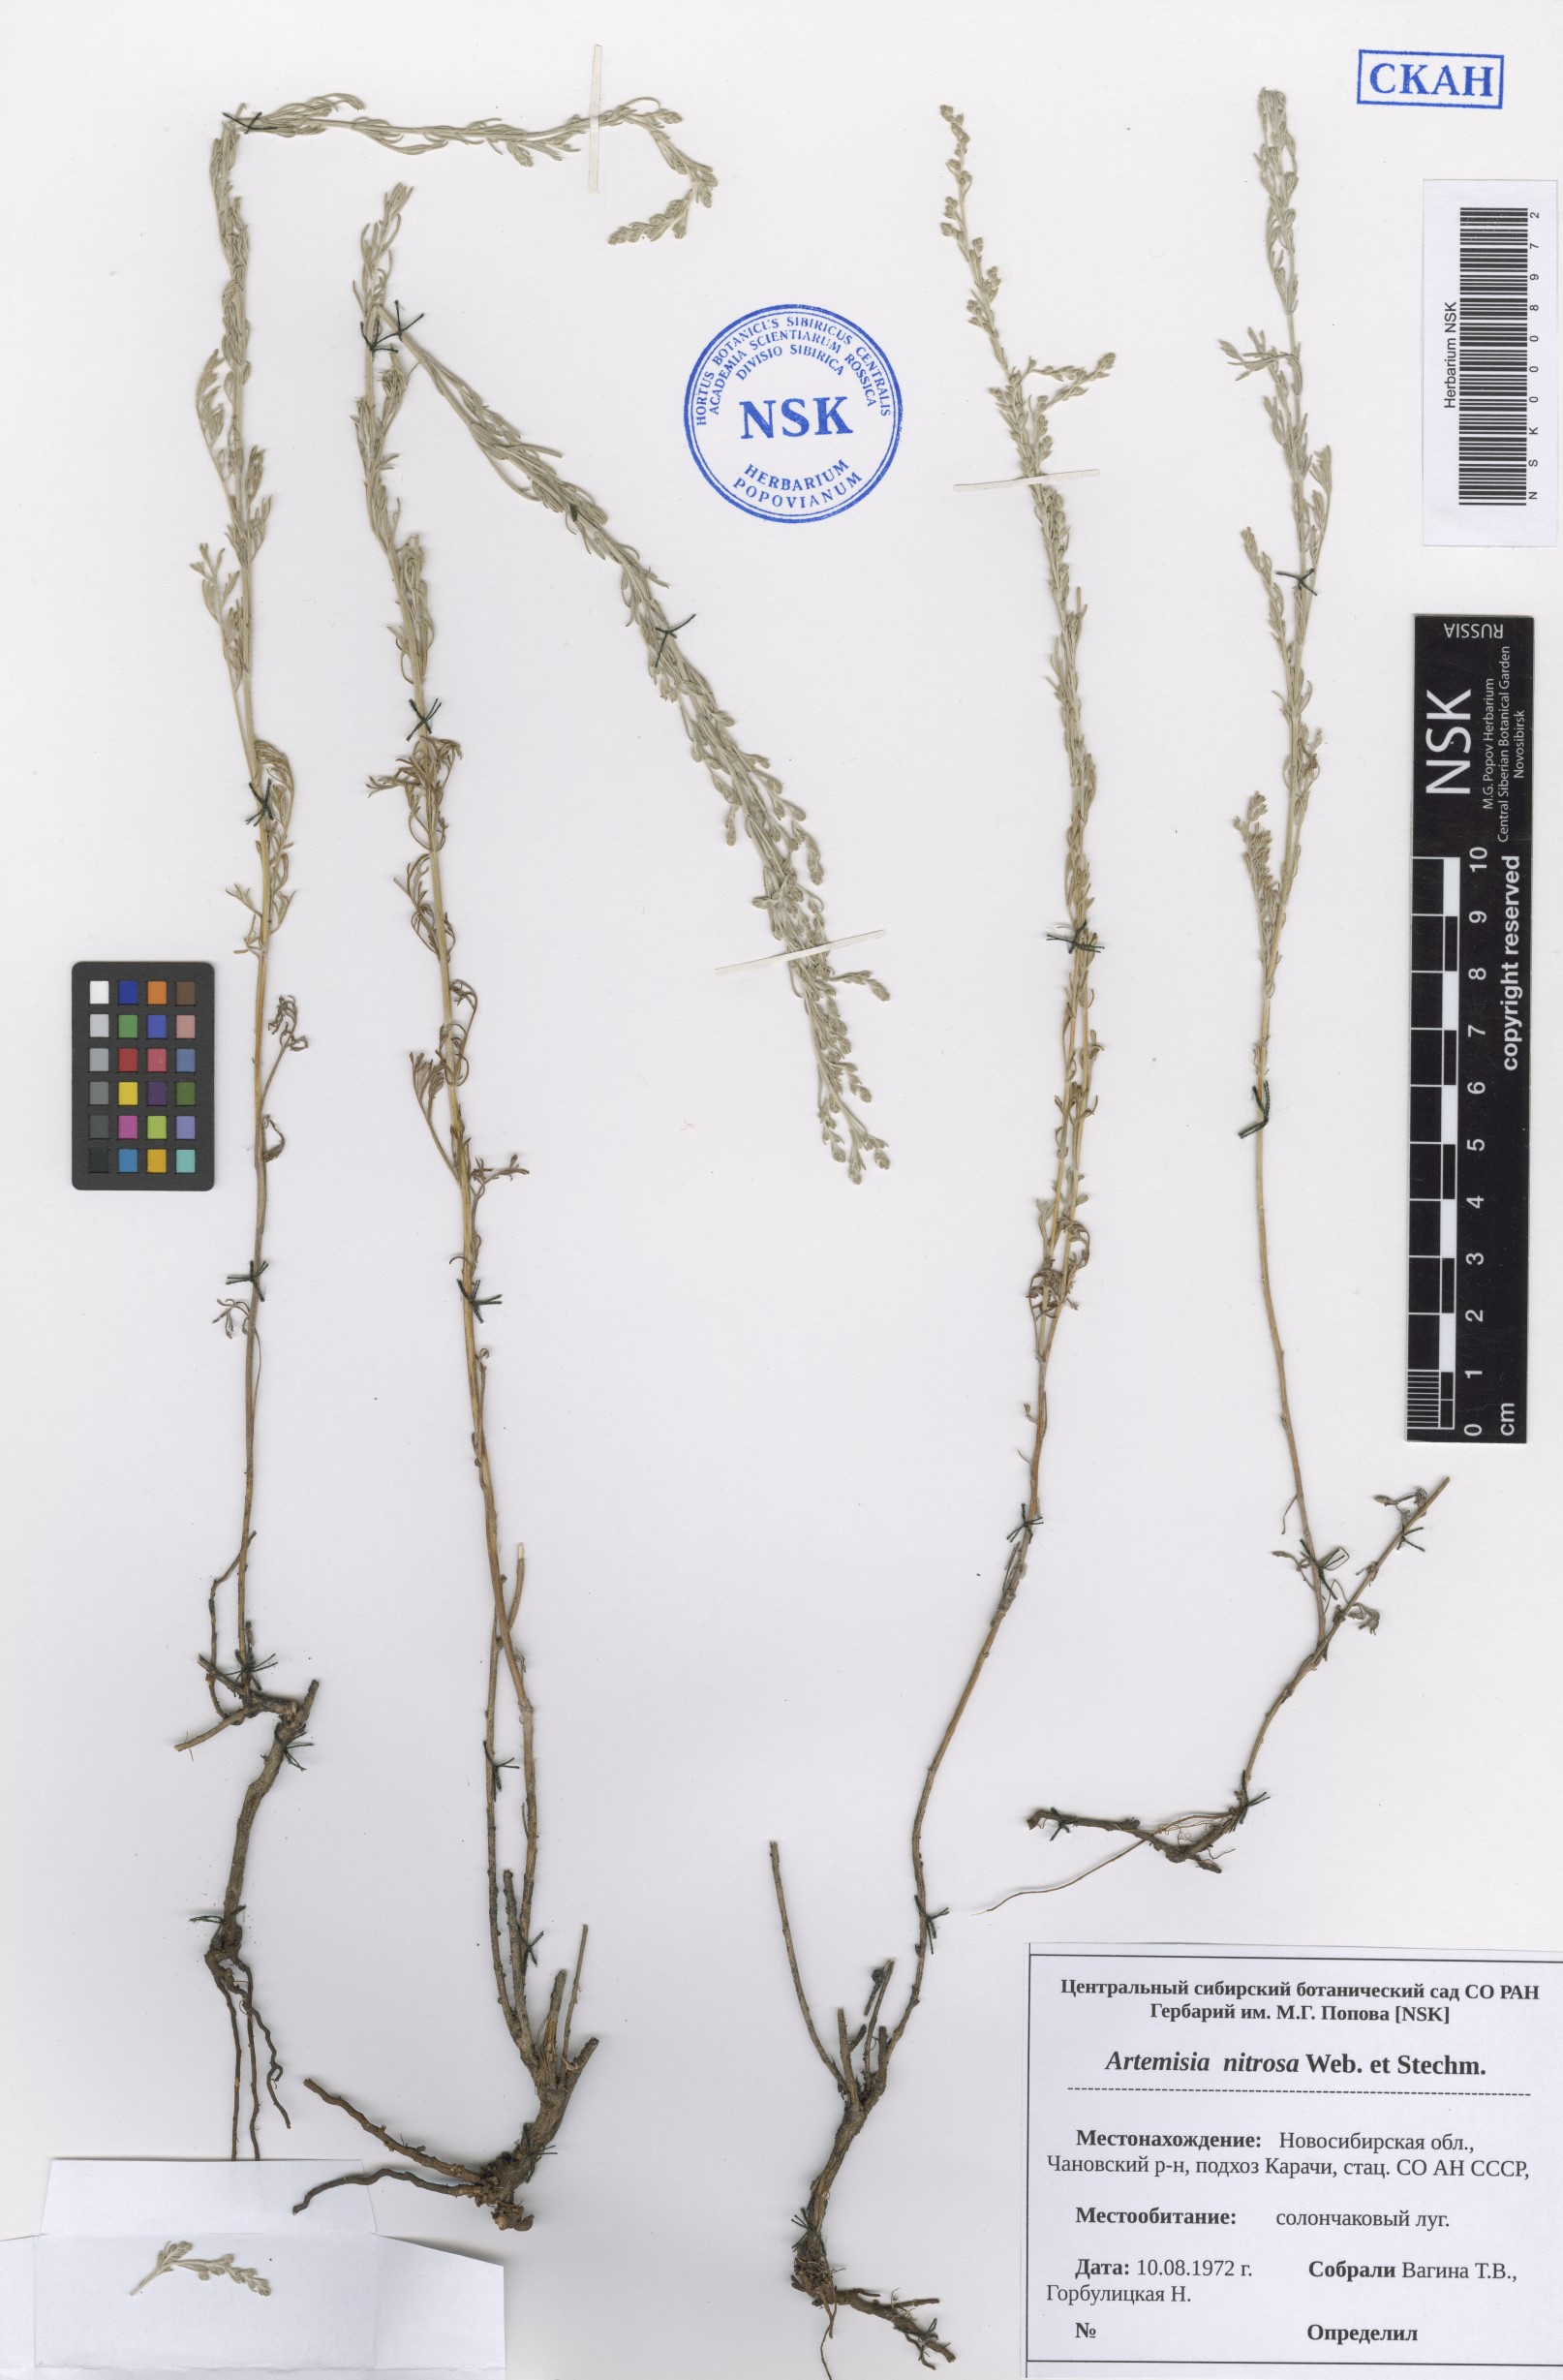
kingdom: Plantae
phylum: Tracheophyta
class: Magnoliopsida
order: Asterales
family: Asteraceae
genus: Artemisia
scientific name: Artemisia nitrosa
